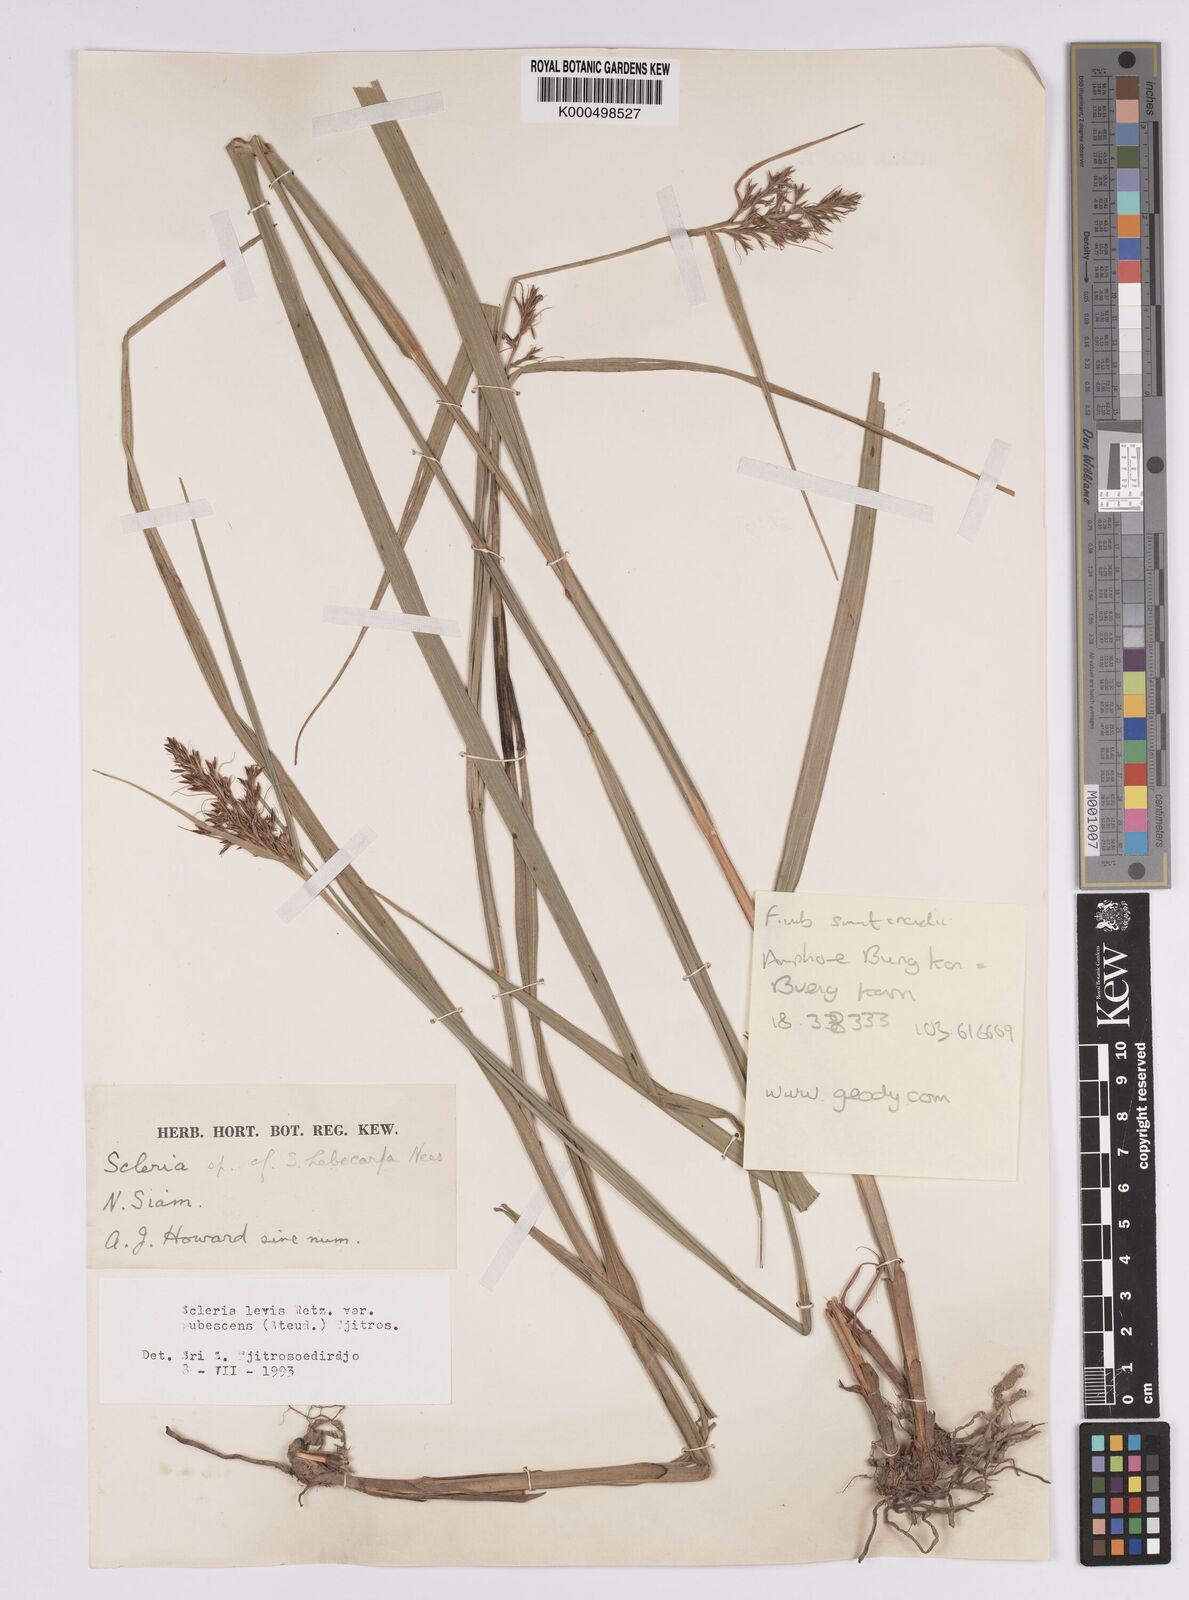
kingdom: Plantae
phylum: Tracheophyta
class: Liliopsida
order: Poales
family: Cyperaceae
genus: Scleria
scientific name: Scleria levis
